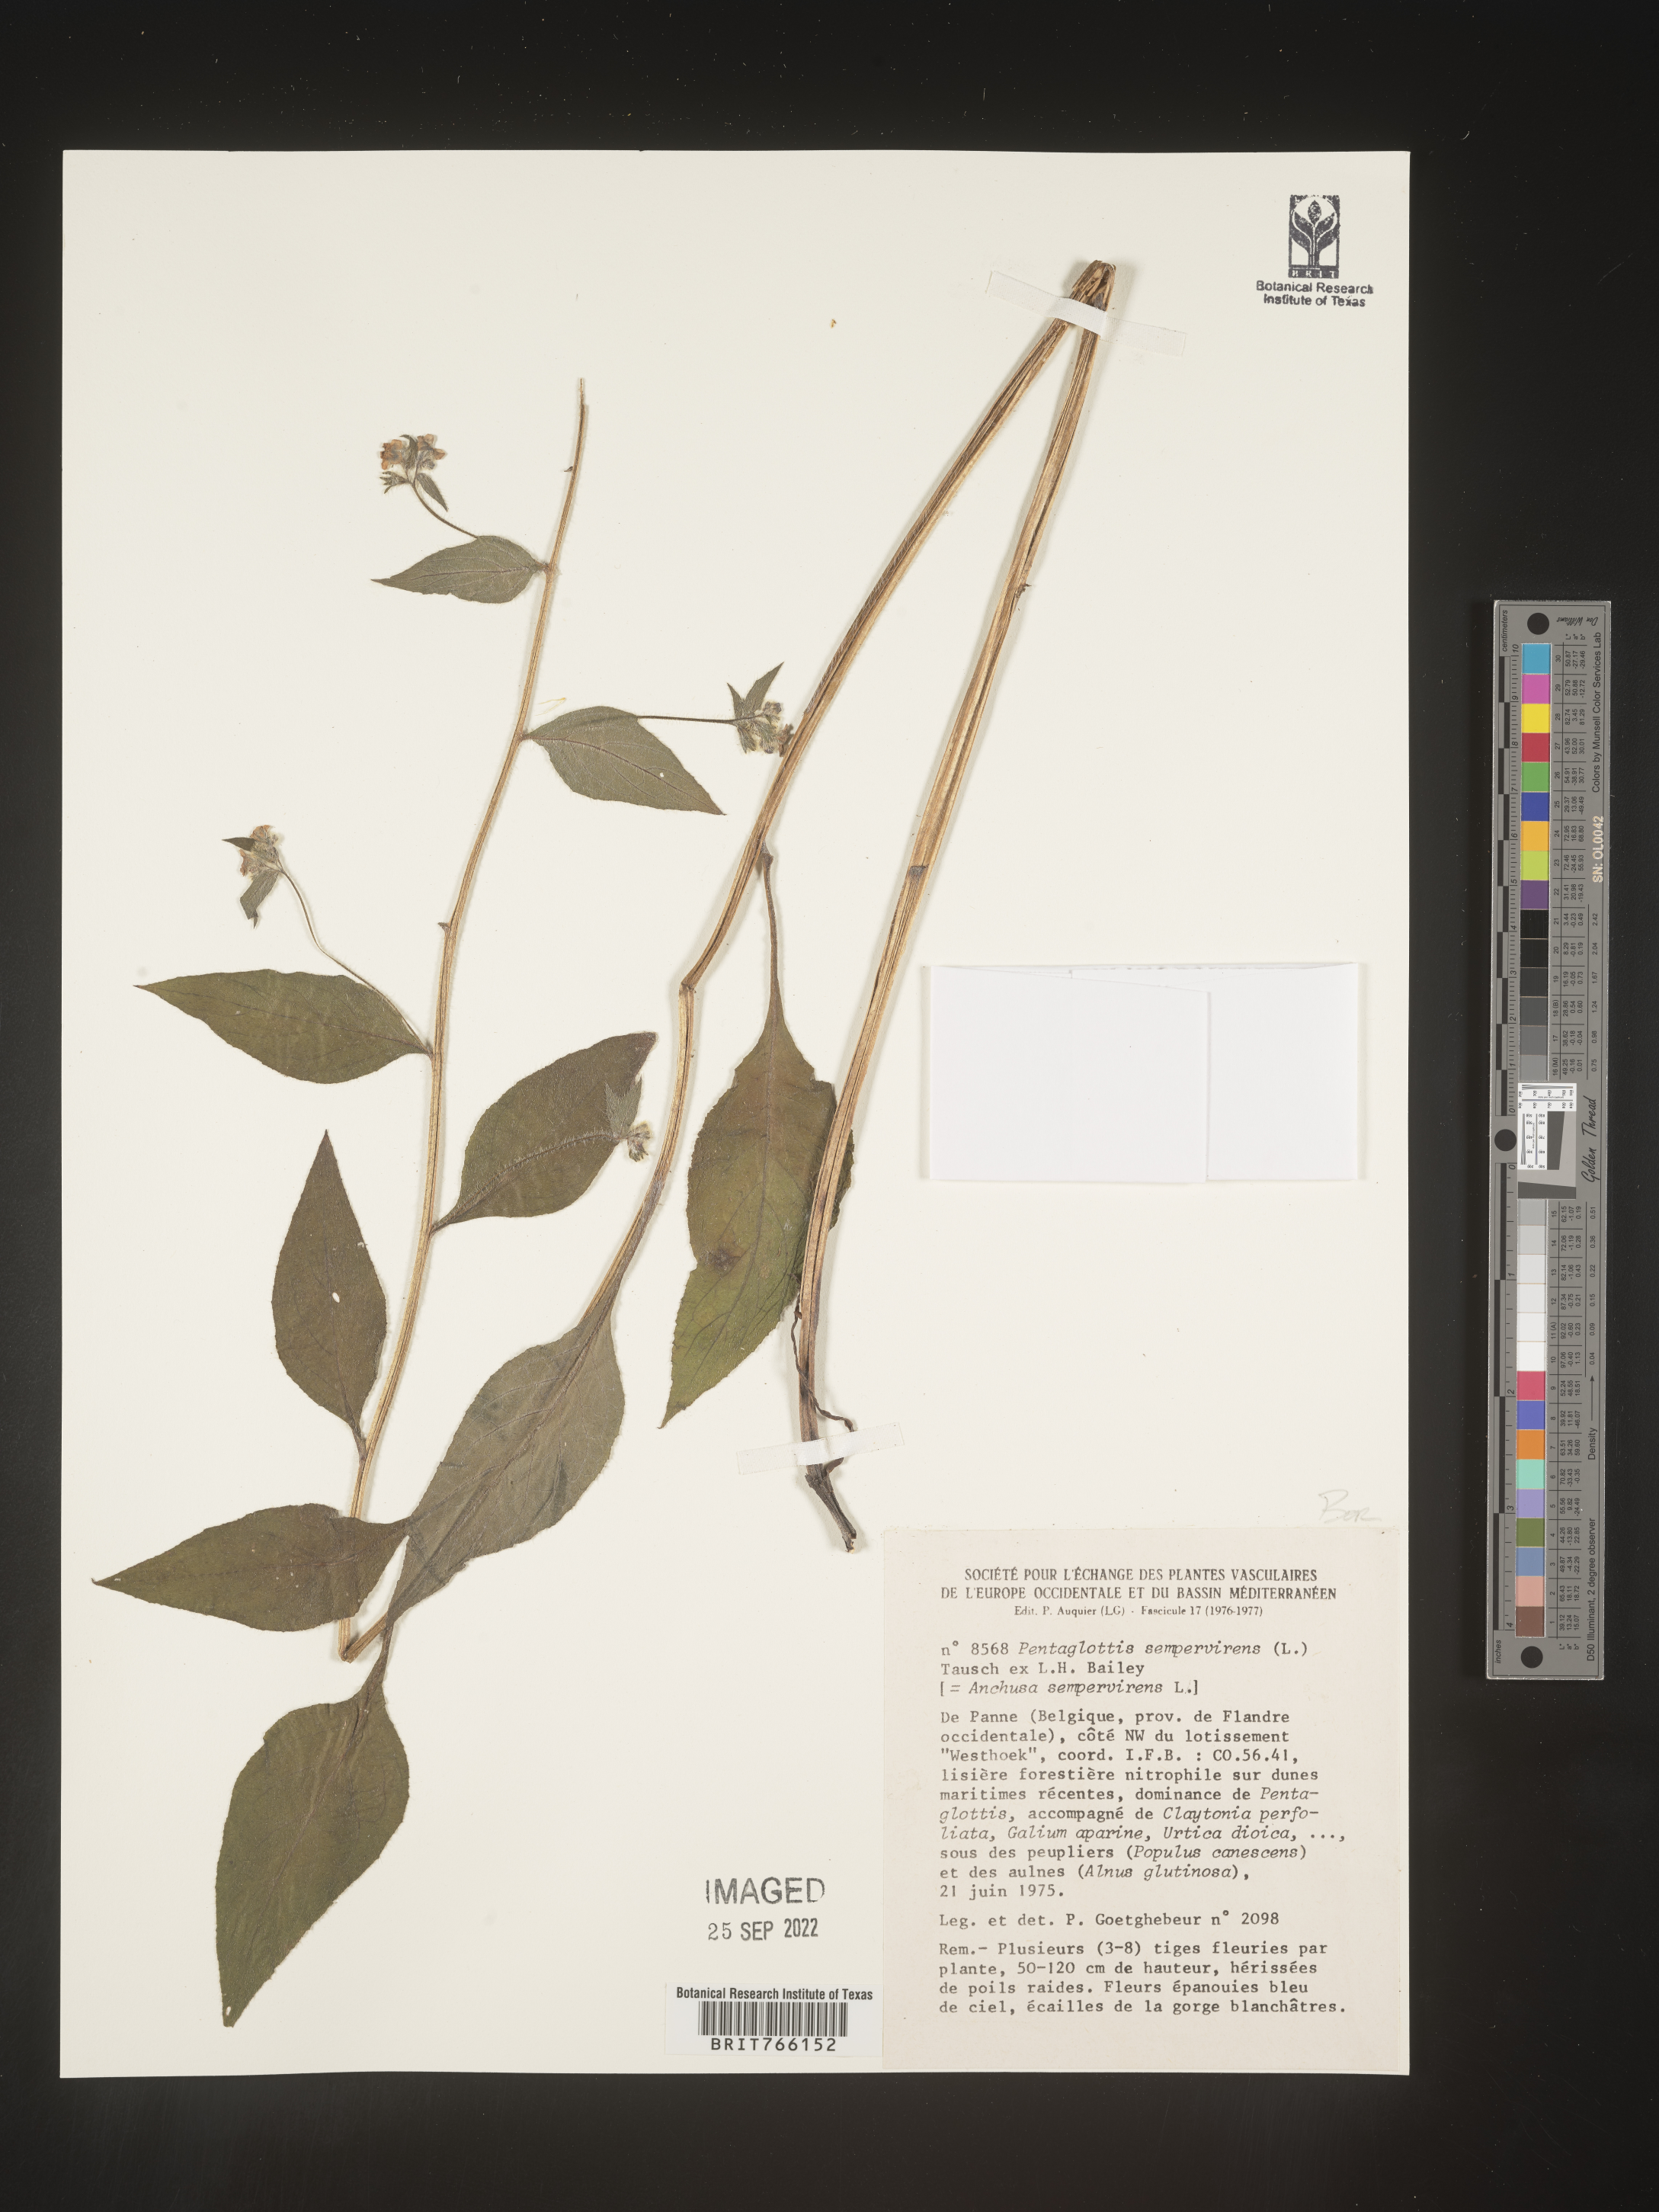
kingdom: Plantae
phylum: Tracheophyta
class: Magnoliopsida
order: Boraginales
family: Boraginaceae
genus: Anchusa
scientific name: Anchusa
